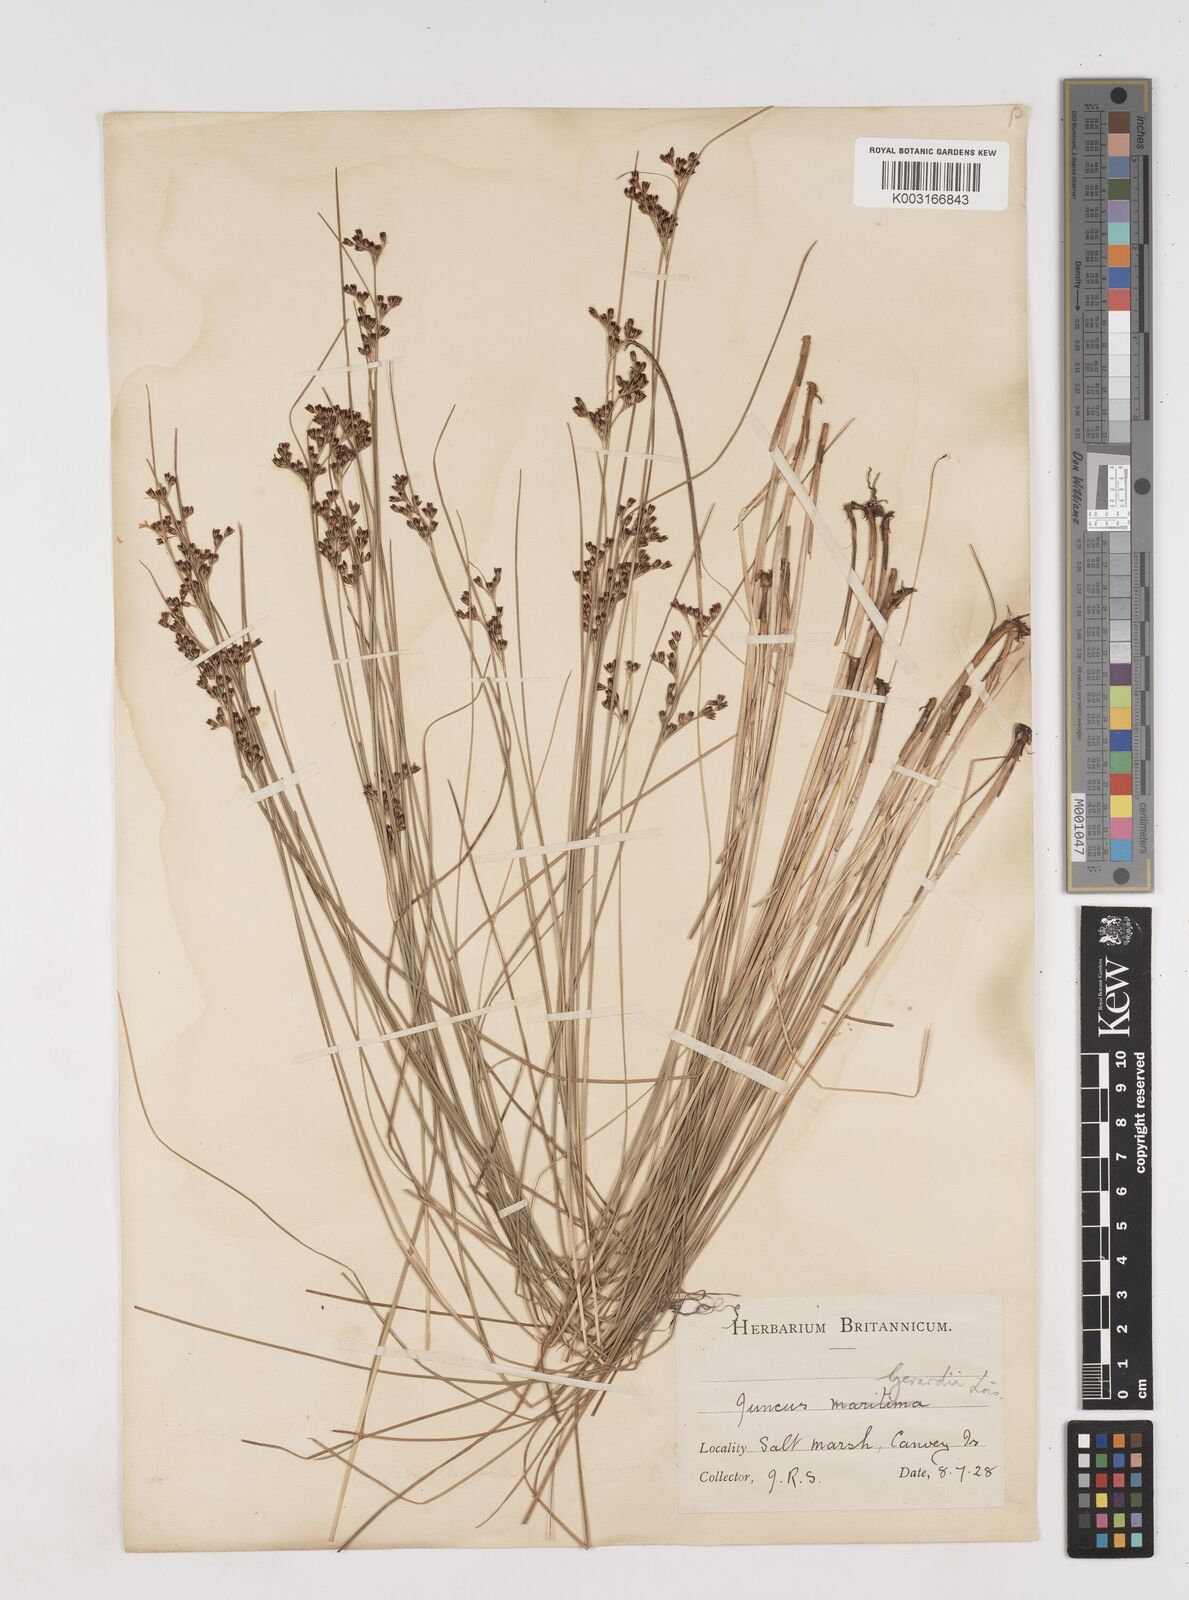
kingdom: Plantae
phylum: Tracheophyta
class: Liliopsida
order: Poales
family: Juncaceae
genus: Juncus
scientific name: Juncus gerardi
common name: Saltmarsh rush
